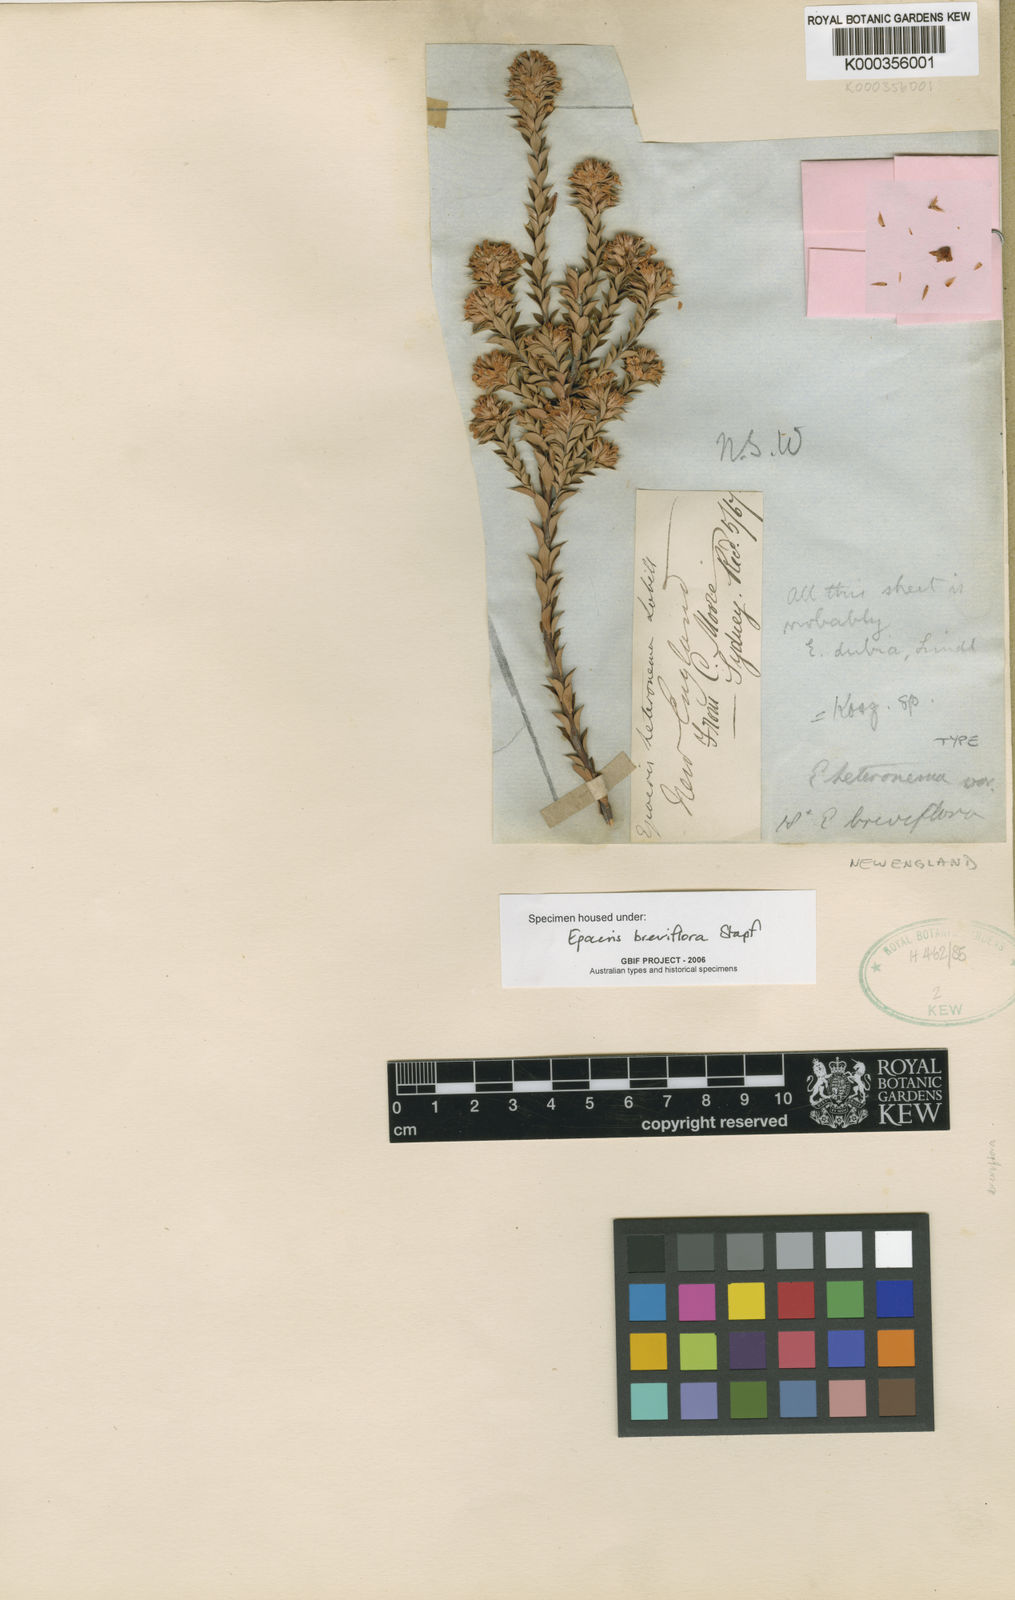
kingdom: Plantae
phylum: Tracheophyta
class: Magnoliopsida
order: Ericales
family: Ericaceae
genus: Epacris
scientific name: Epacris breviflora
